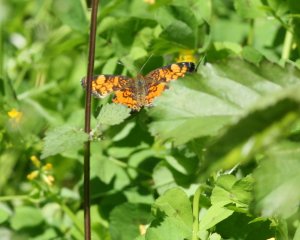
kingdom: Animalia
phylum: Arthropoda
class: Insecta
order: Lepidoptera
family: Nymphalidae
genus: Phyciodes
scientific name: Phyciodes tharos
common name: Pearl Crescent
